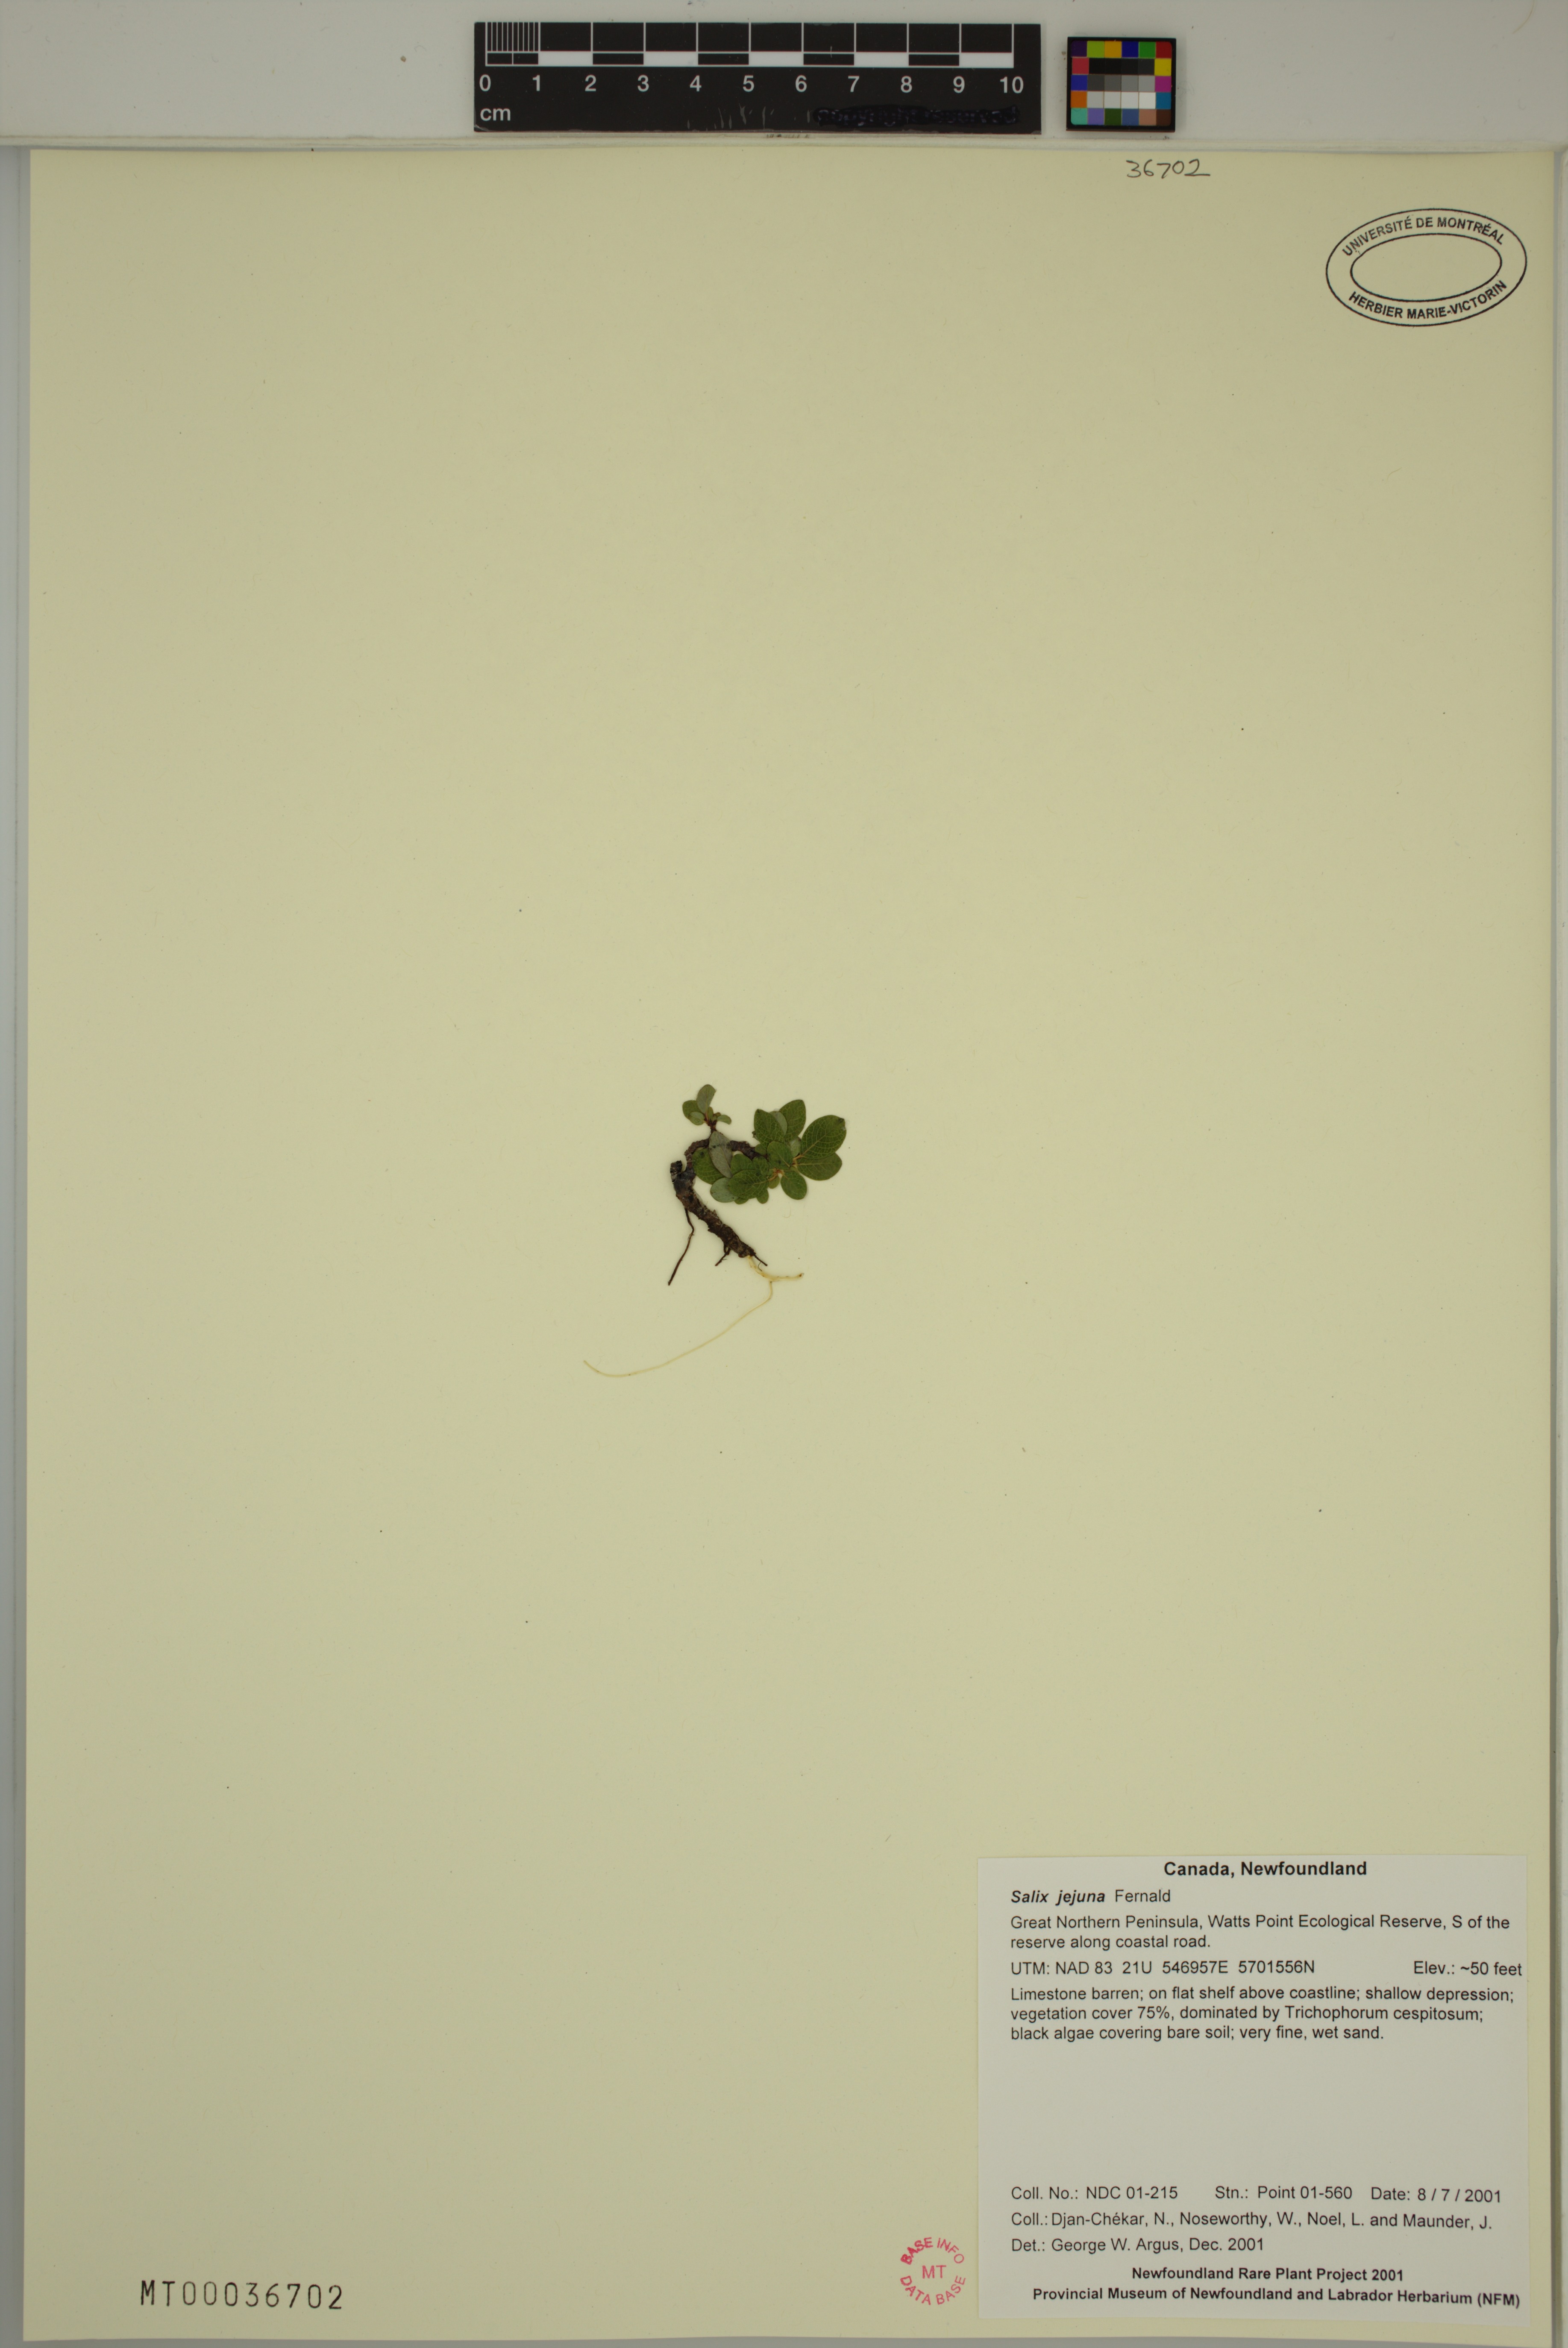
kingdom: Plantae
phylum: Tracheophyta
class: Magnoliopsida
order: Malpighiales
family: Salicaceae
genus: Salix
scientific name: Salix jejuna
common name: Belle isle dwarf willow
